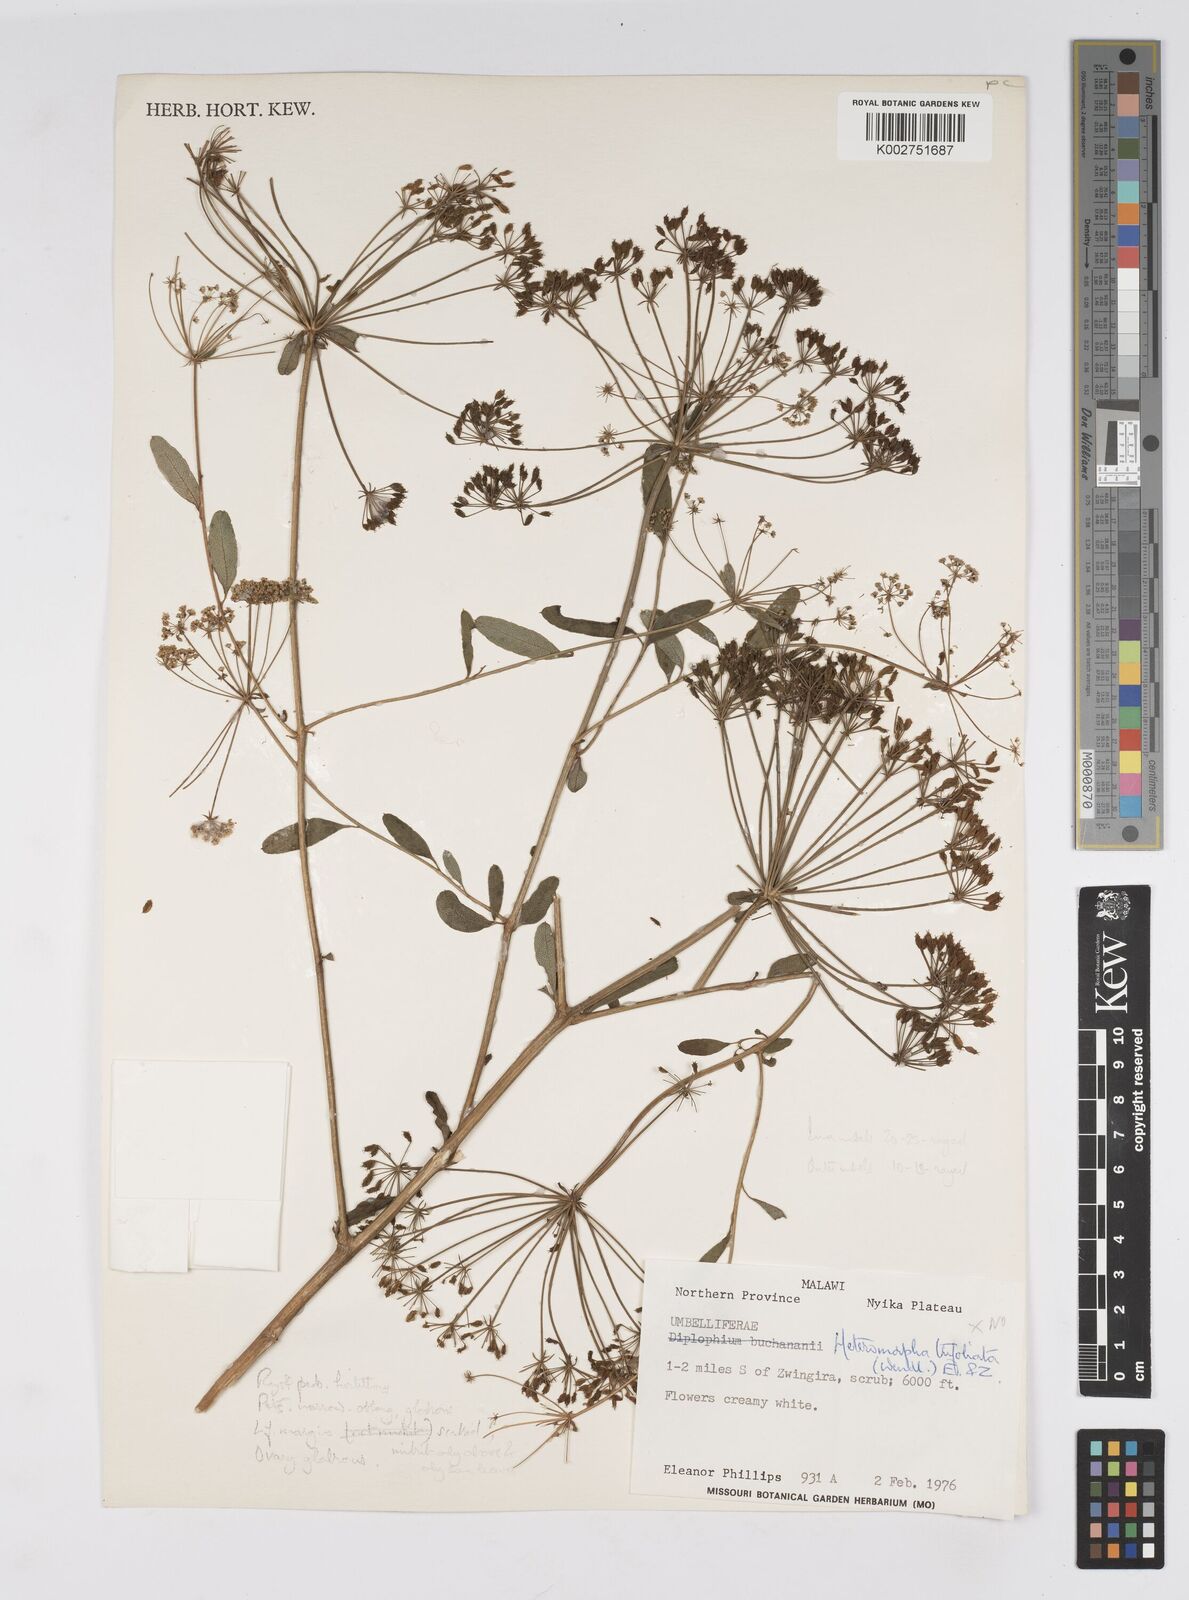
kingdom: Plantae
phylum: Tracheophyta
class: Magnoliopsida
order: Apiales
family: Apiaceae
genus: Heteromorpha
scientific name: Heteromorpha stenophylla
